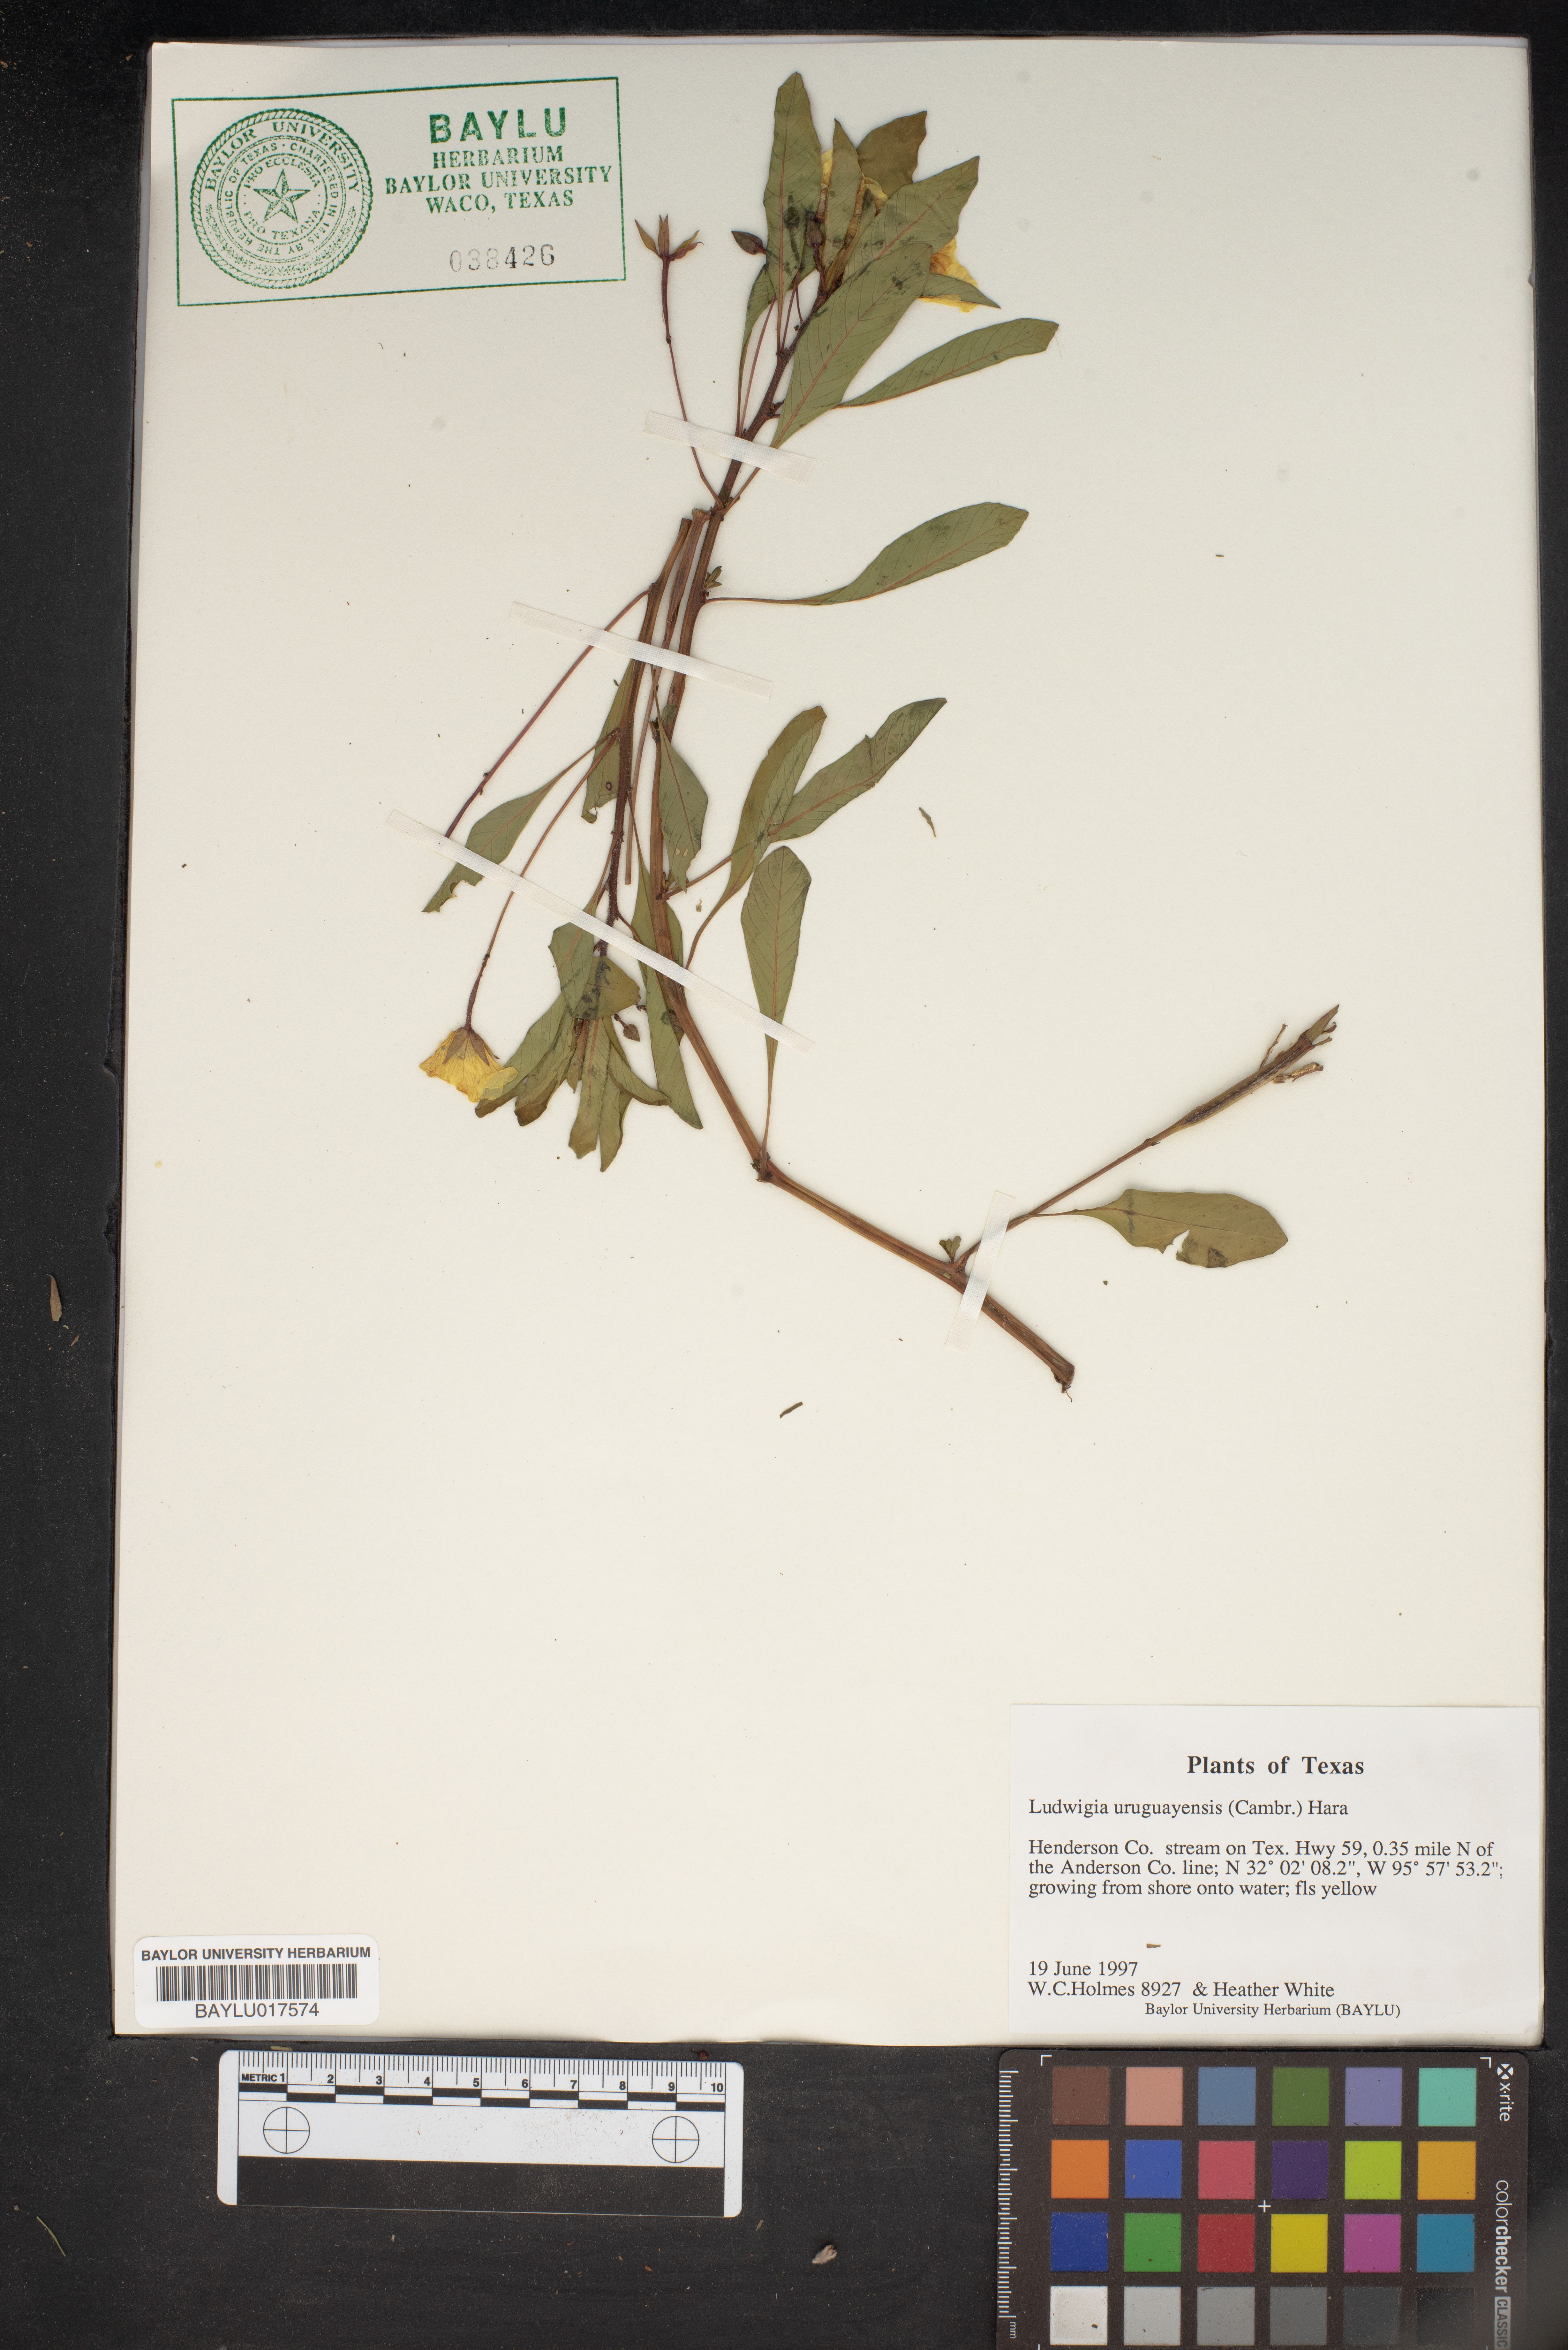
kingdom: Plantae
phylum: Tracheophyta
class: Magnoliopsida
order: Myrtales
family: Onagraceae
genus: Ludwigia
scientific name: Ludwigia grandiflora
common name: Water primrose
